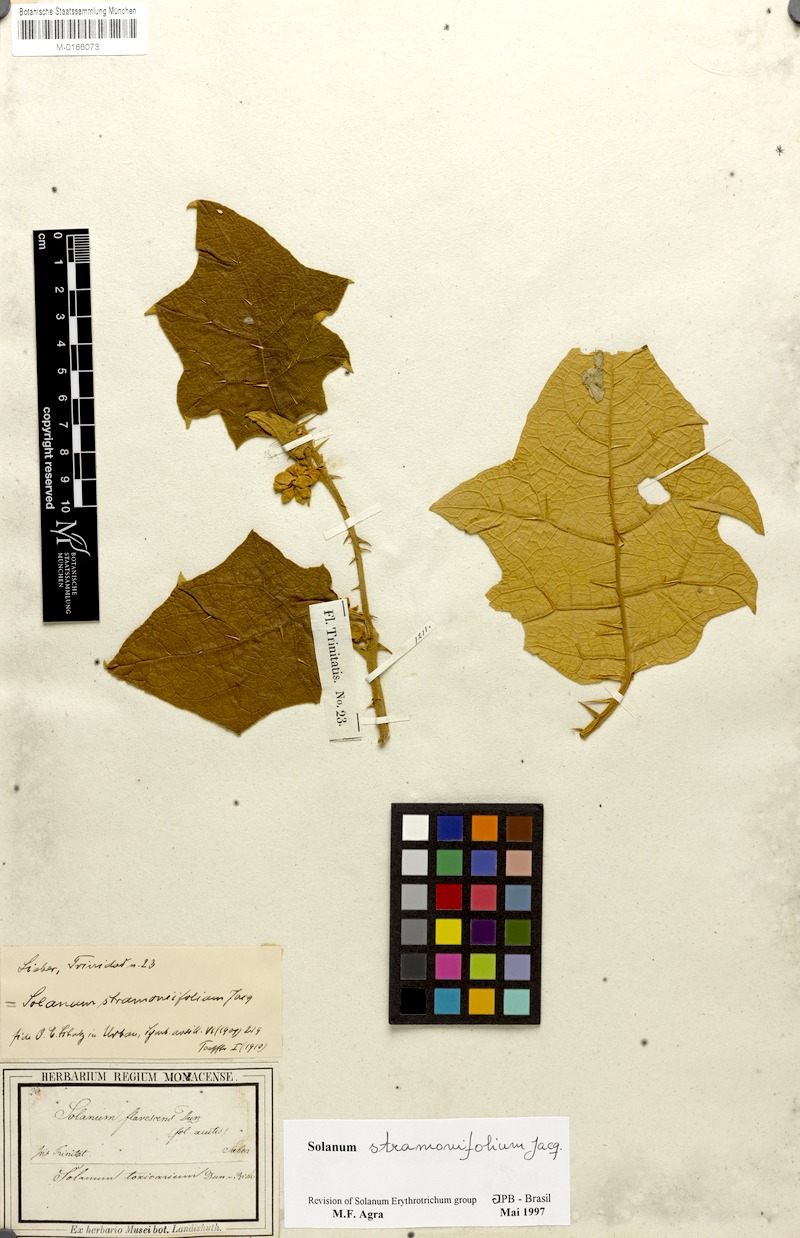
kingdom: Plantae
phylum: Tracheophyta
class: Magnoliopsida
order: Solanales
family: Solanaceae
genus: Solanum
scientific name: Solanum stramonifolium
